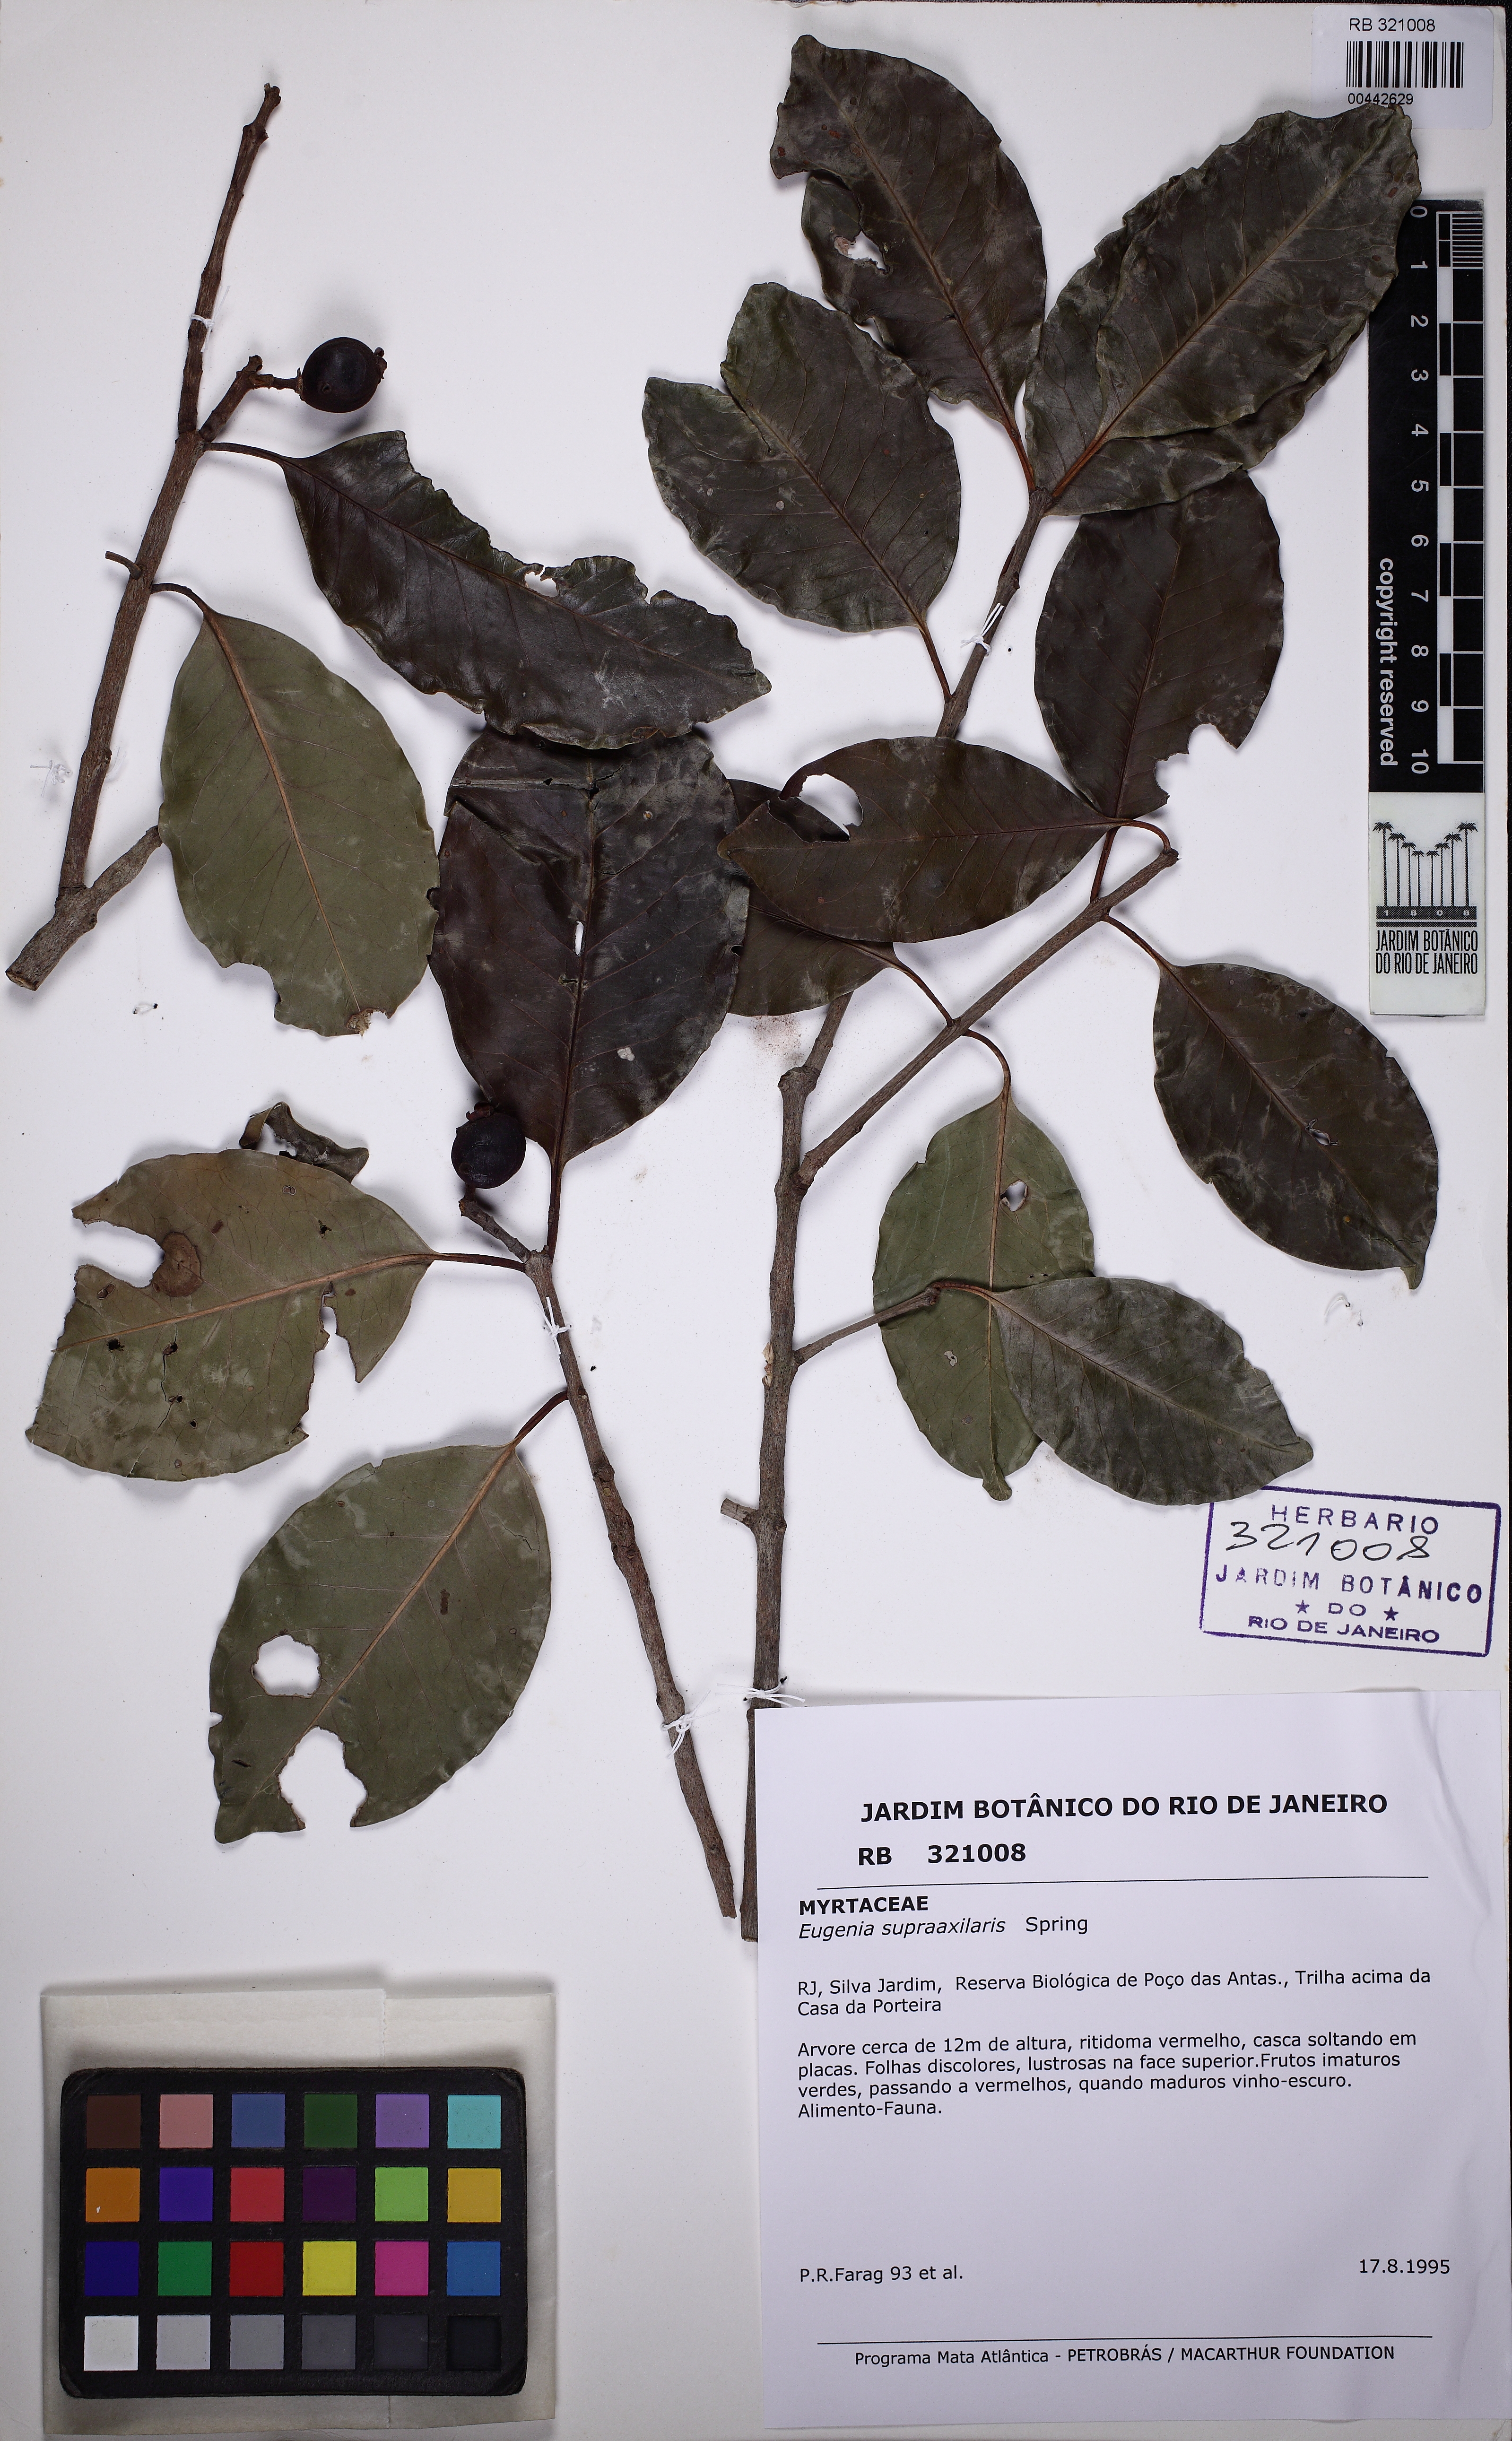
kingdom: Plantae
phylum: Tracheophyta
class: Magnoliopsida
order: Myrtales
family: Myrtaceae
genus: Eugenia
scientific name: Eugenia supraaxillaris
